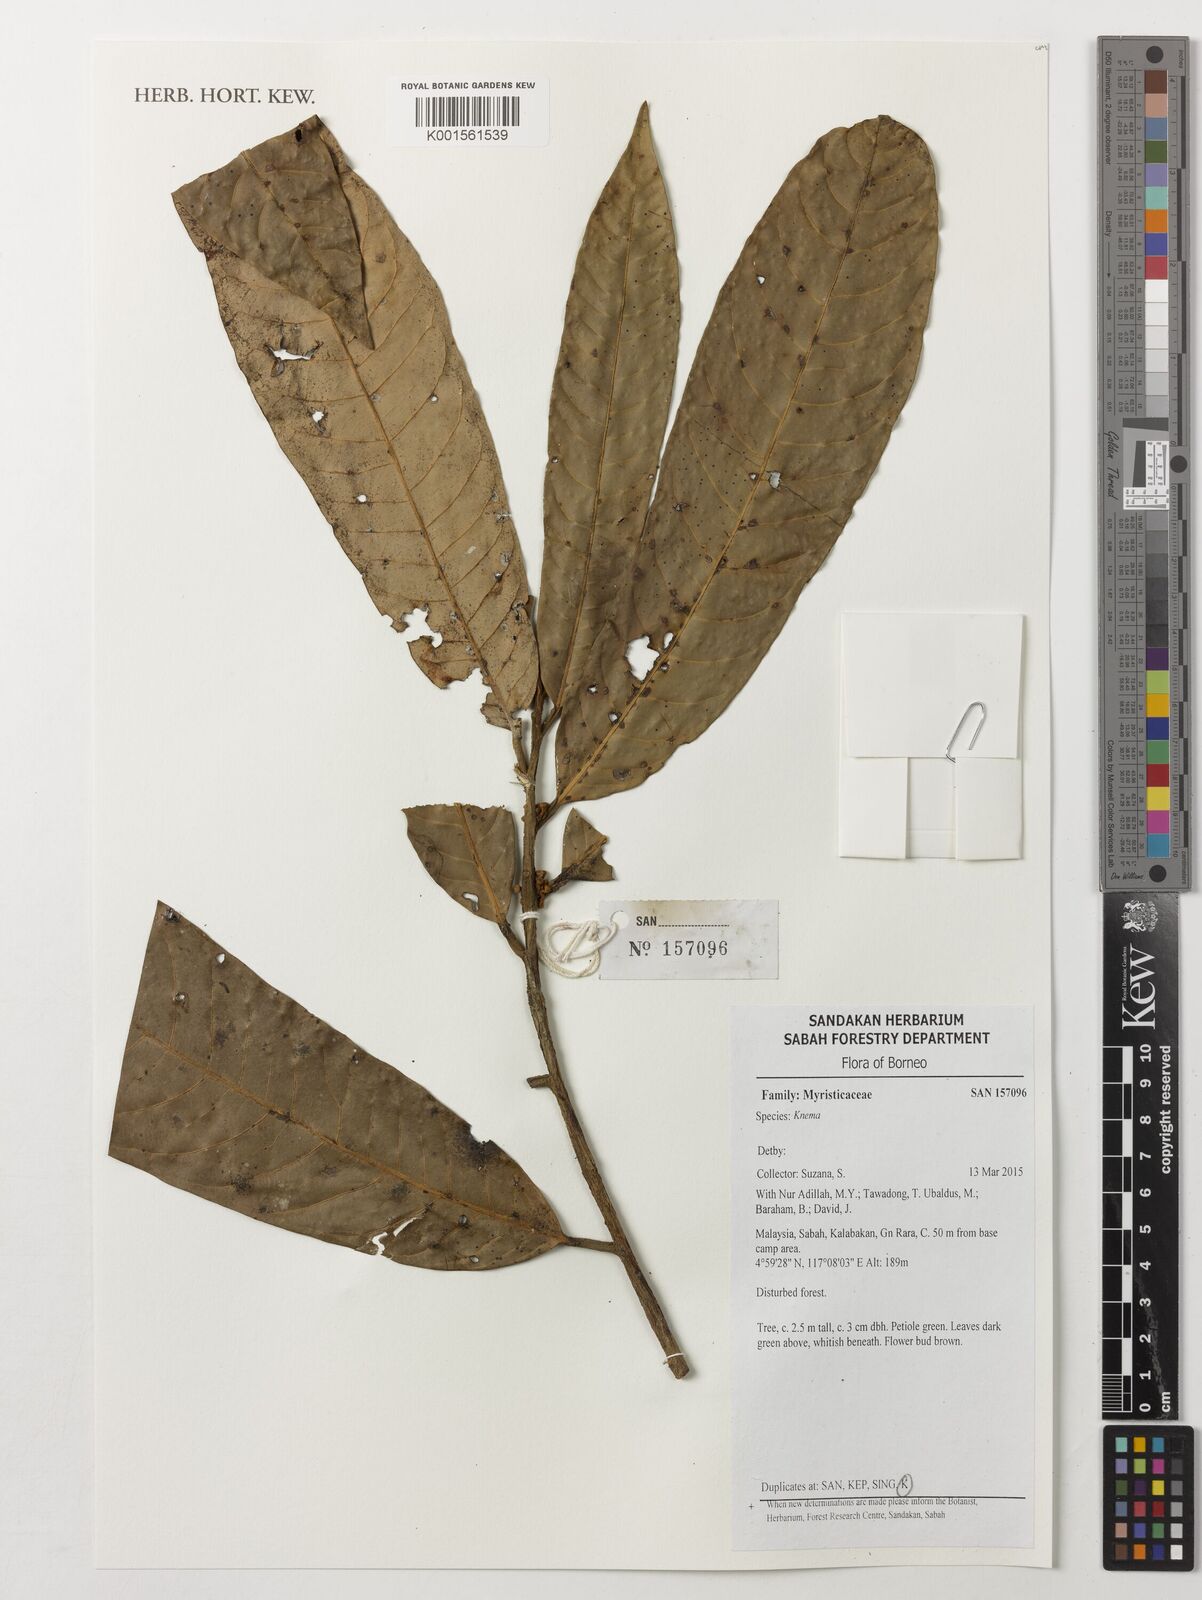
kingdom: Plantae
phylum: Tracheophyta
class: Magnoliopsida
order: Magnoliales
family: Myristicaceae
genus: Knema
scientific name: Knema
